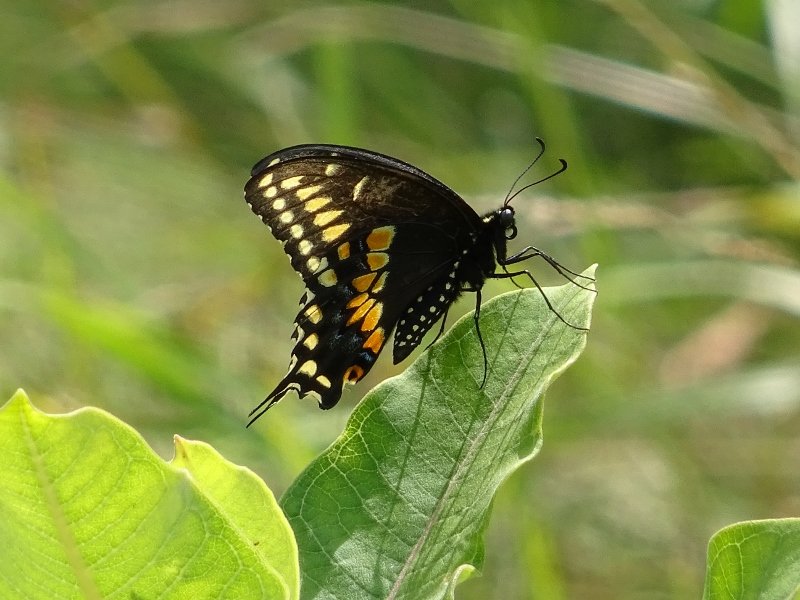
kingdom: Animalia
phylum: Arthropoda
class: Insecta
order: Lepidoptera
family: Papilionidae
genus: Papilio
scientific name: Papilio polyxenes
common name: Black Swallowtail
